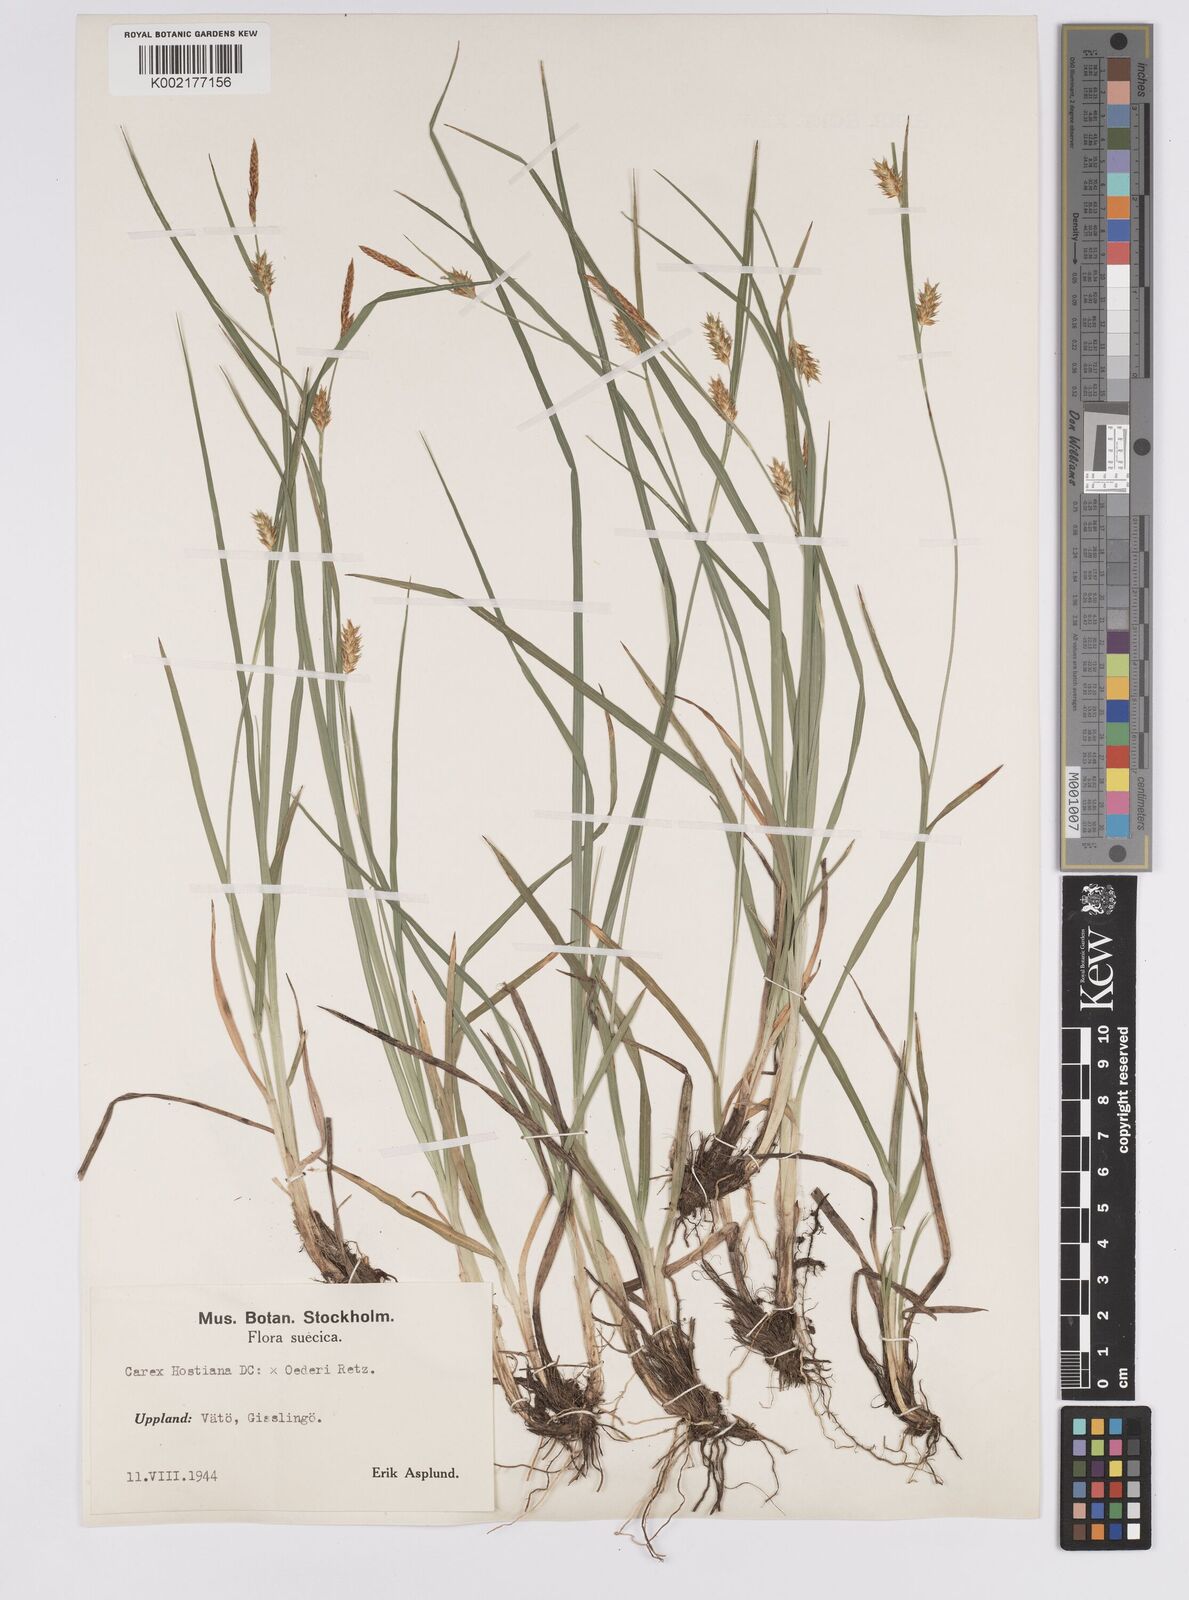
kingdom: Plantae
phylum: Tracheophyta
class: Liliopsida
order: Poales
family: Cyperaceae
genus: Carex
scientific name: Carex hostiana
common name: Tawny sedge
